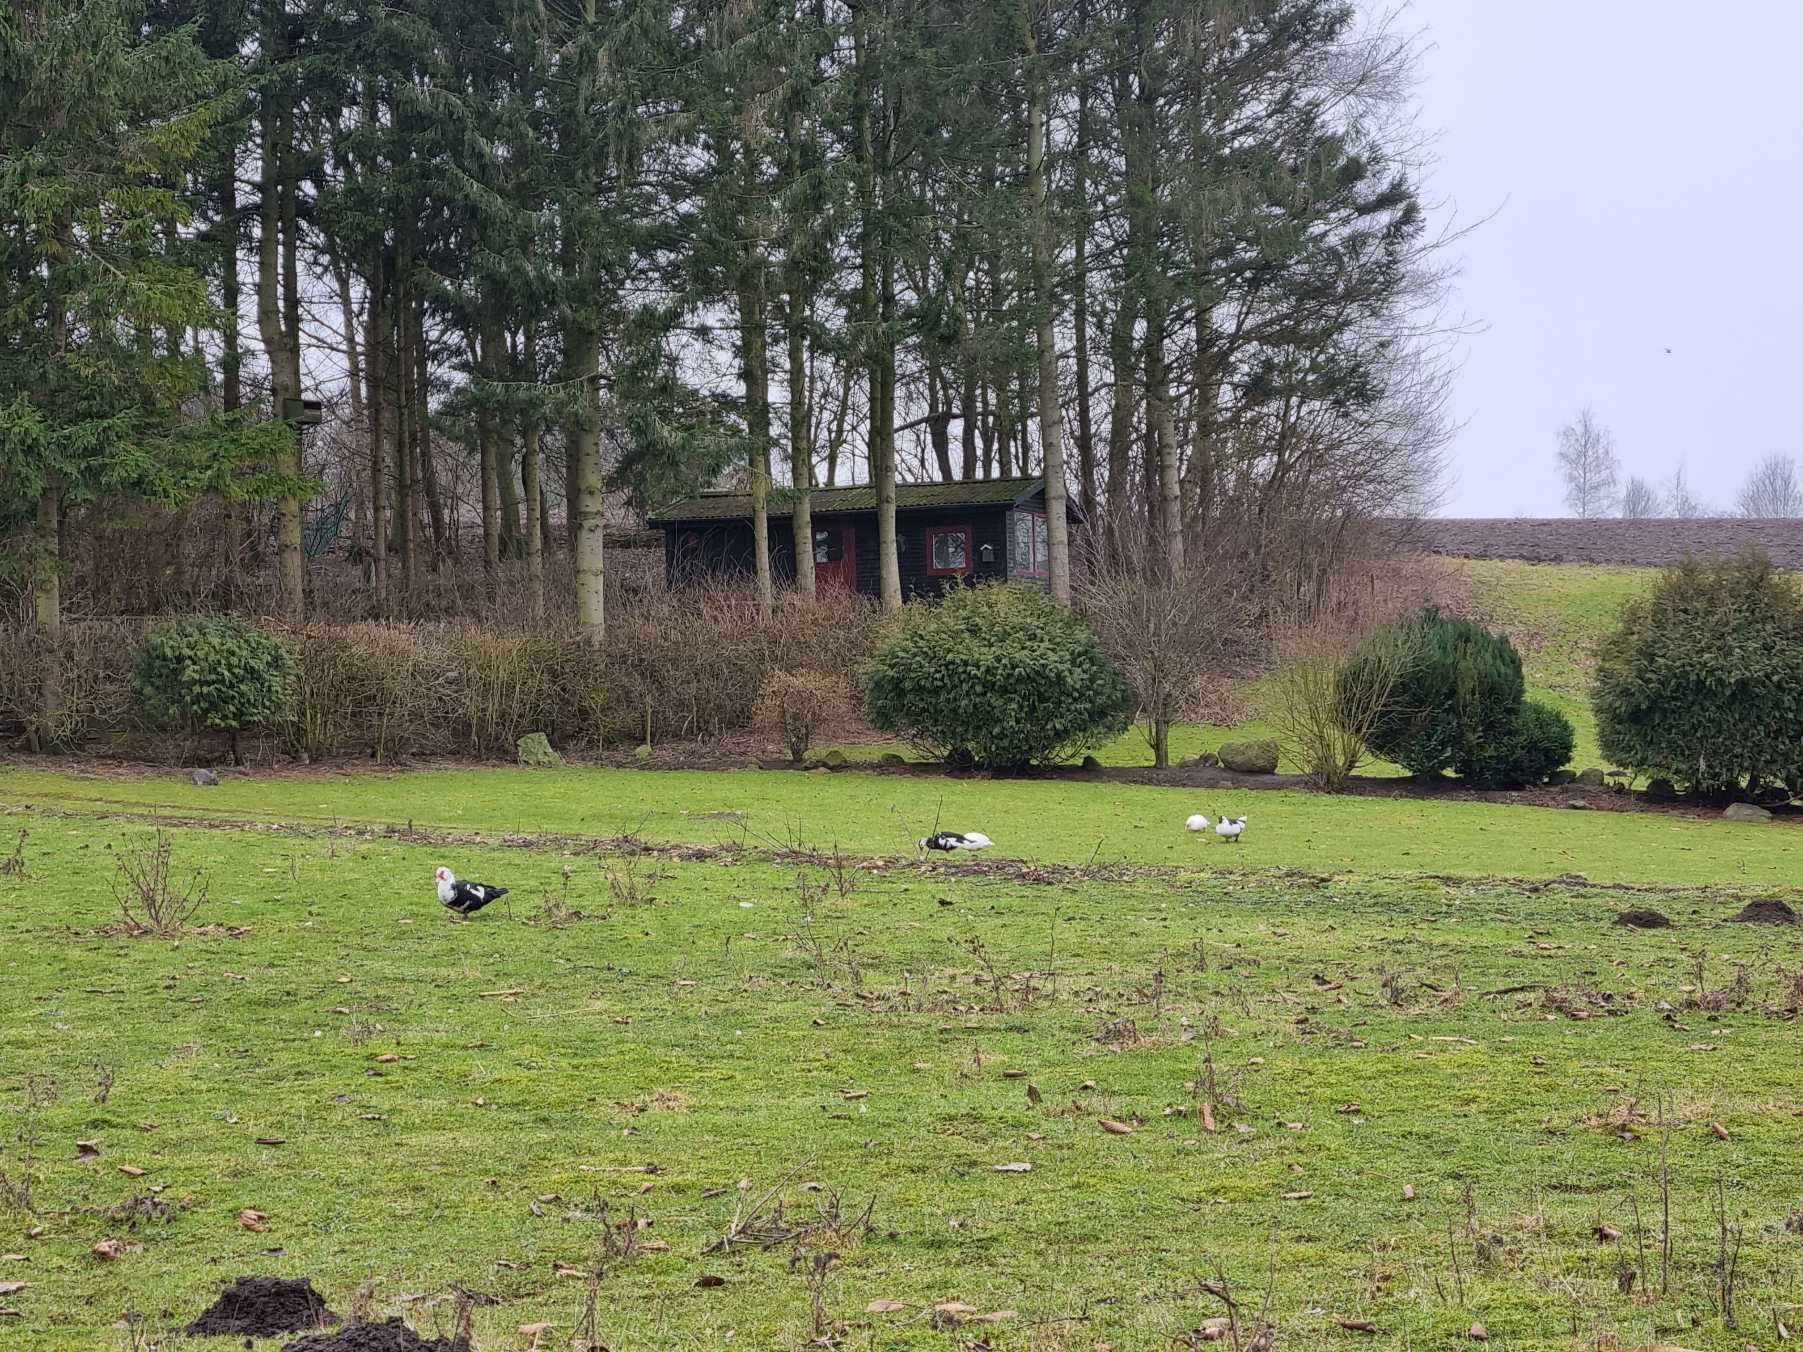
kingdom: Animalia
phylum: Chordata
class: Aves
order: Anseriformes
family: Anatidae
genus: Cairina
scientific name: Cairina moschata
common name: Moskusand
